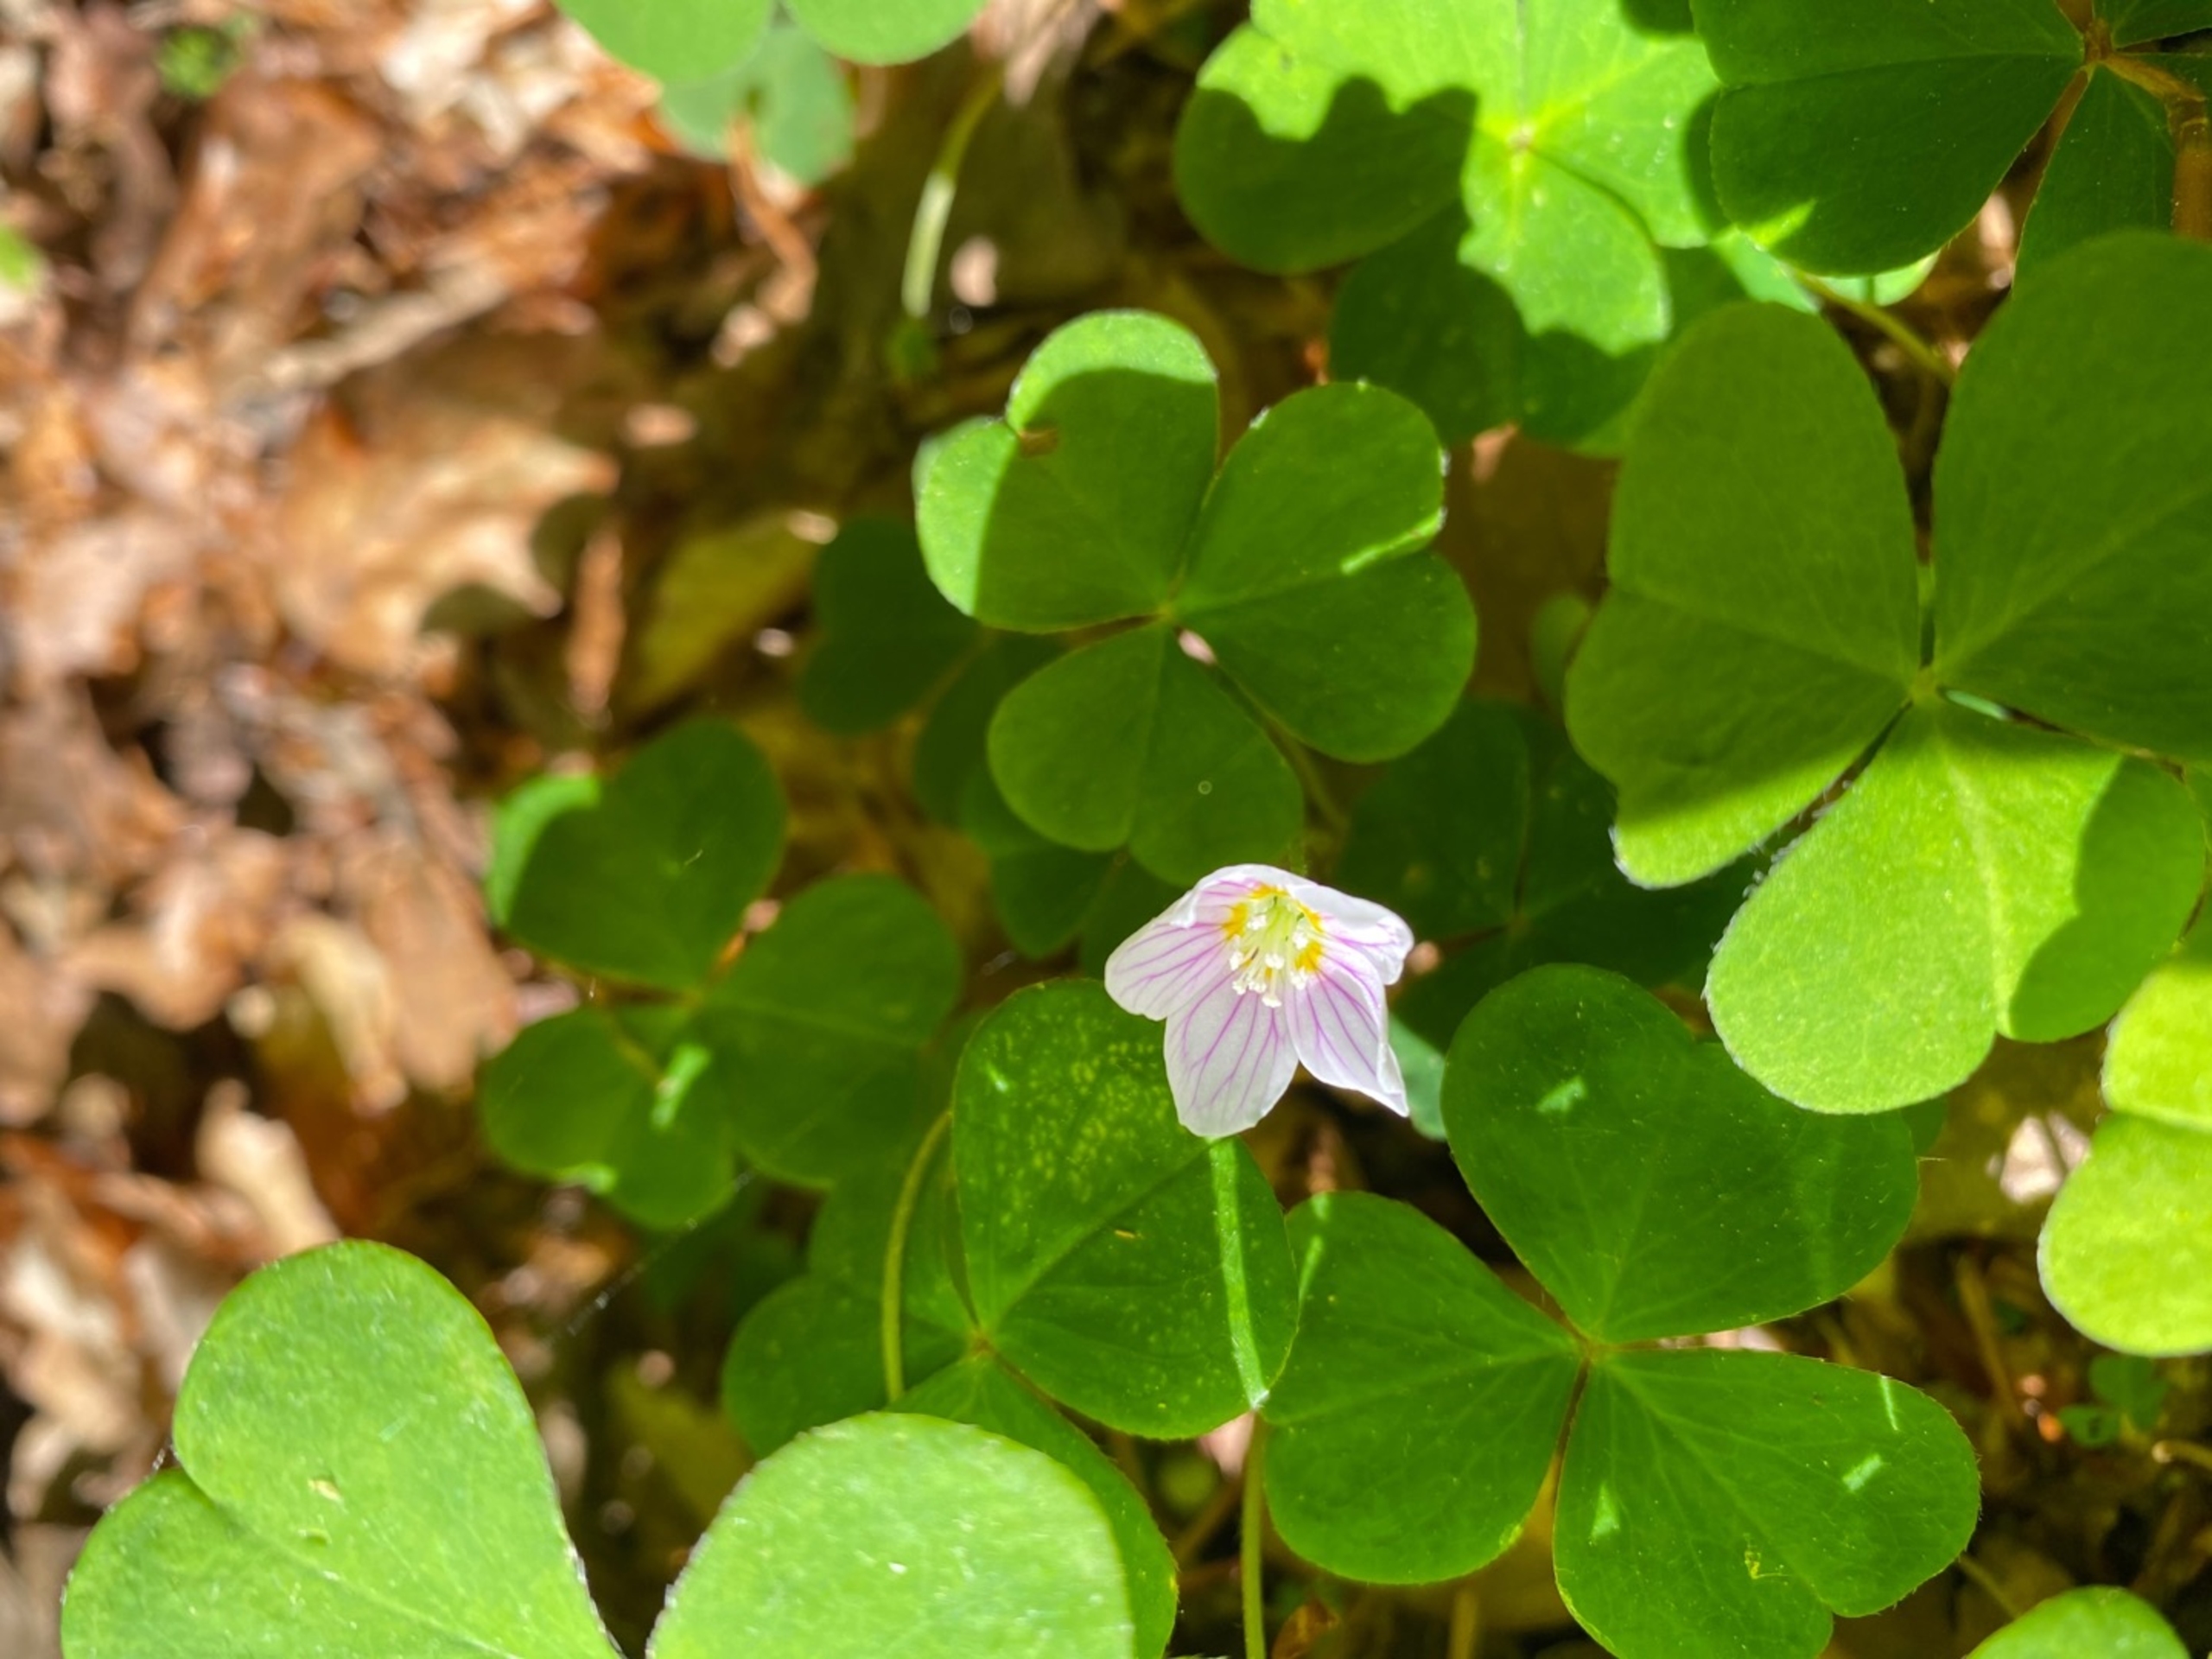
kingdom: Plantae
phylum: Tracheophyta
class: Magnoliopsida
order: Oxalidales
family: Oxalidaceae
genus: Oxalis
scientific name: Oxalis acetosella
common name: Skovsyre
